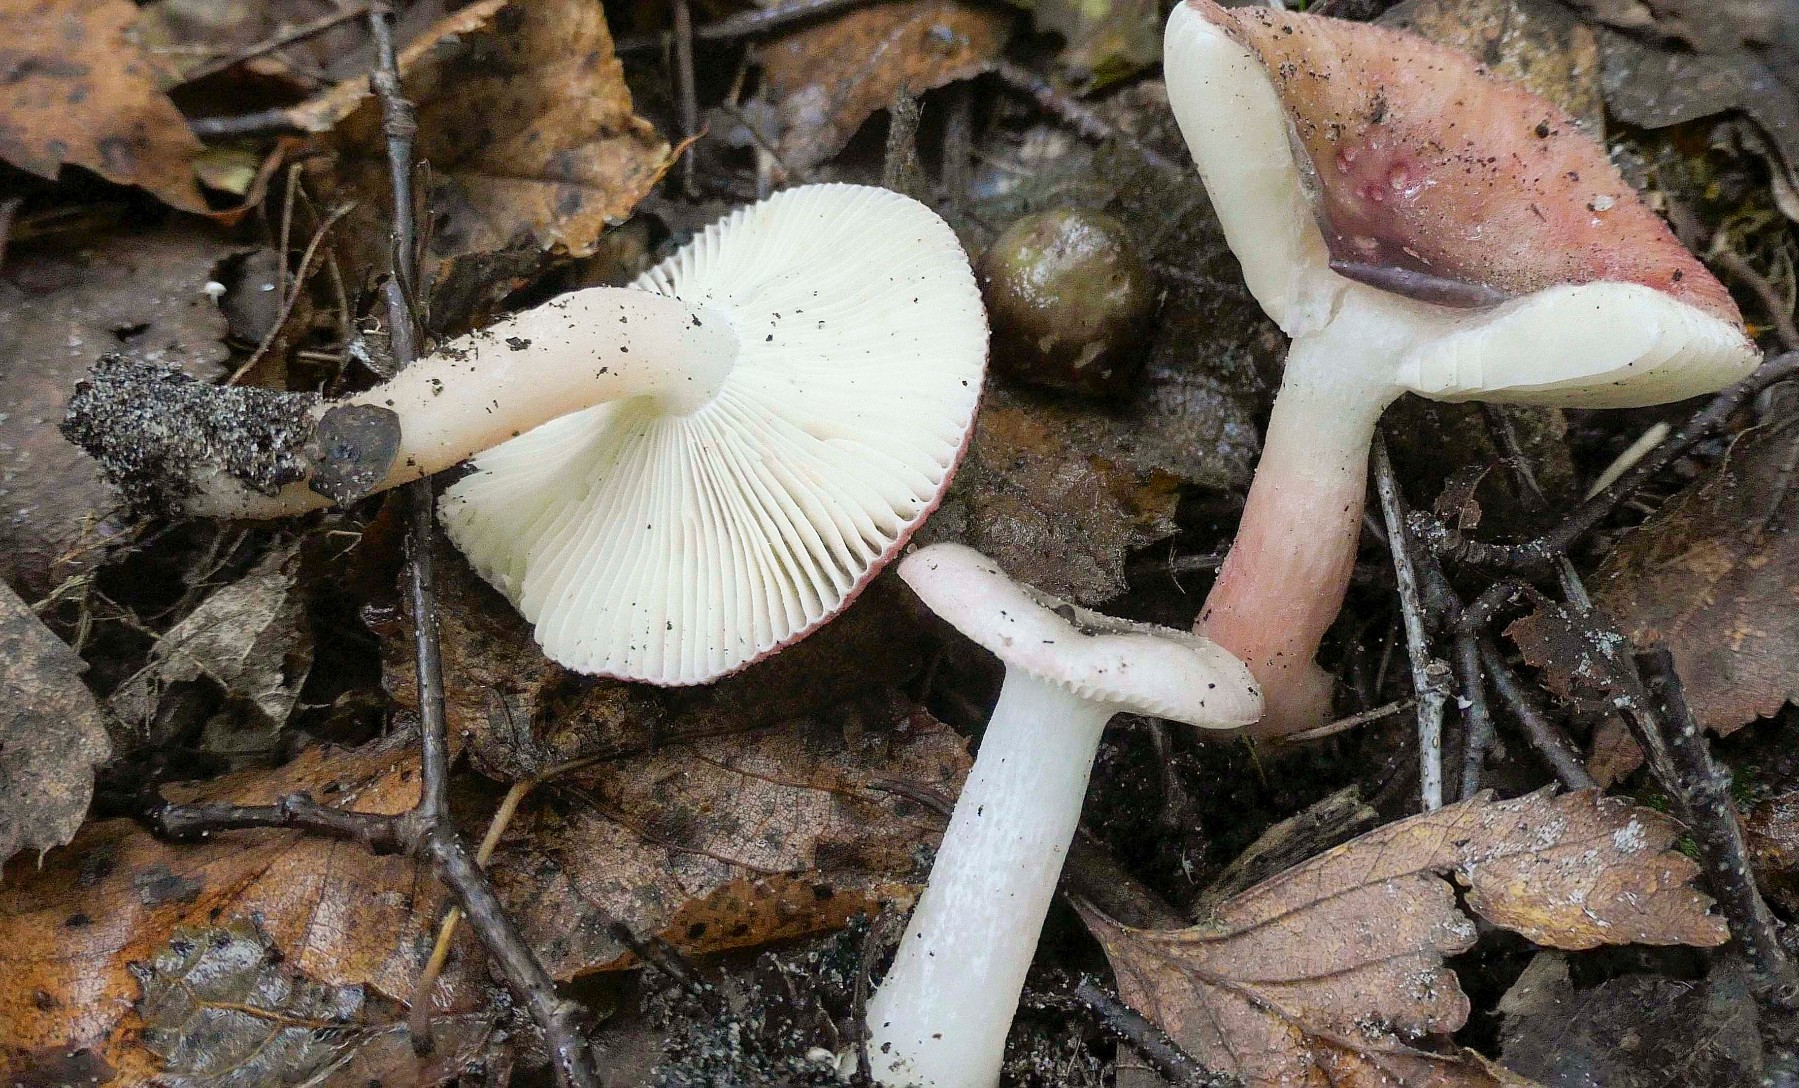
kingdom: Fungi
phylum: Basidiomycota
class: Agaricomycetes
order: Russulales
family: Russulaceae
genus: Russula
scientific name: Russula gracillima
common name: slank skørhat
